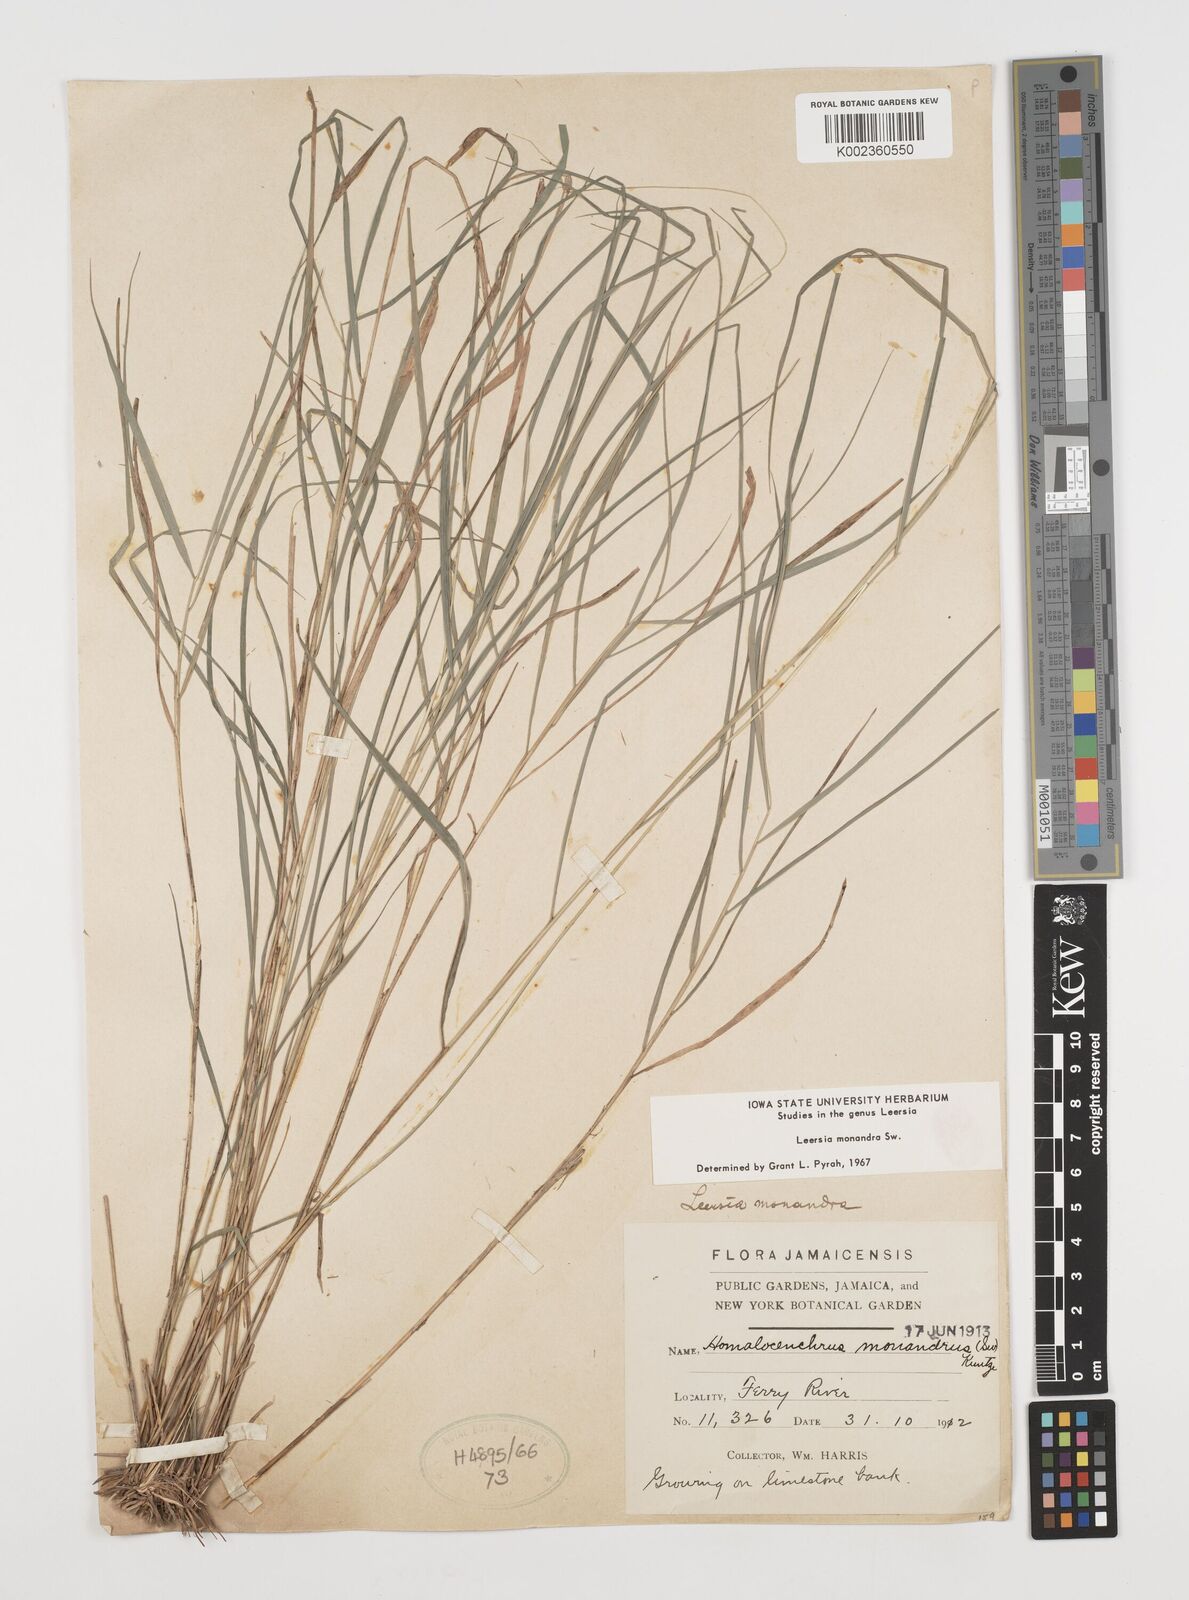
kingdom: Plantae
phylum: Tracheophyta
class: Liliopsida
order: Poales
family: Poaceae
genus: Leersia
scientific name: Leersia monandra
